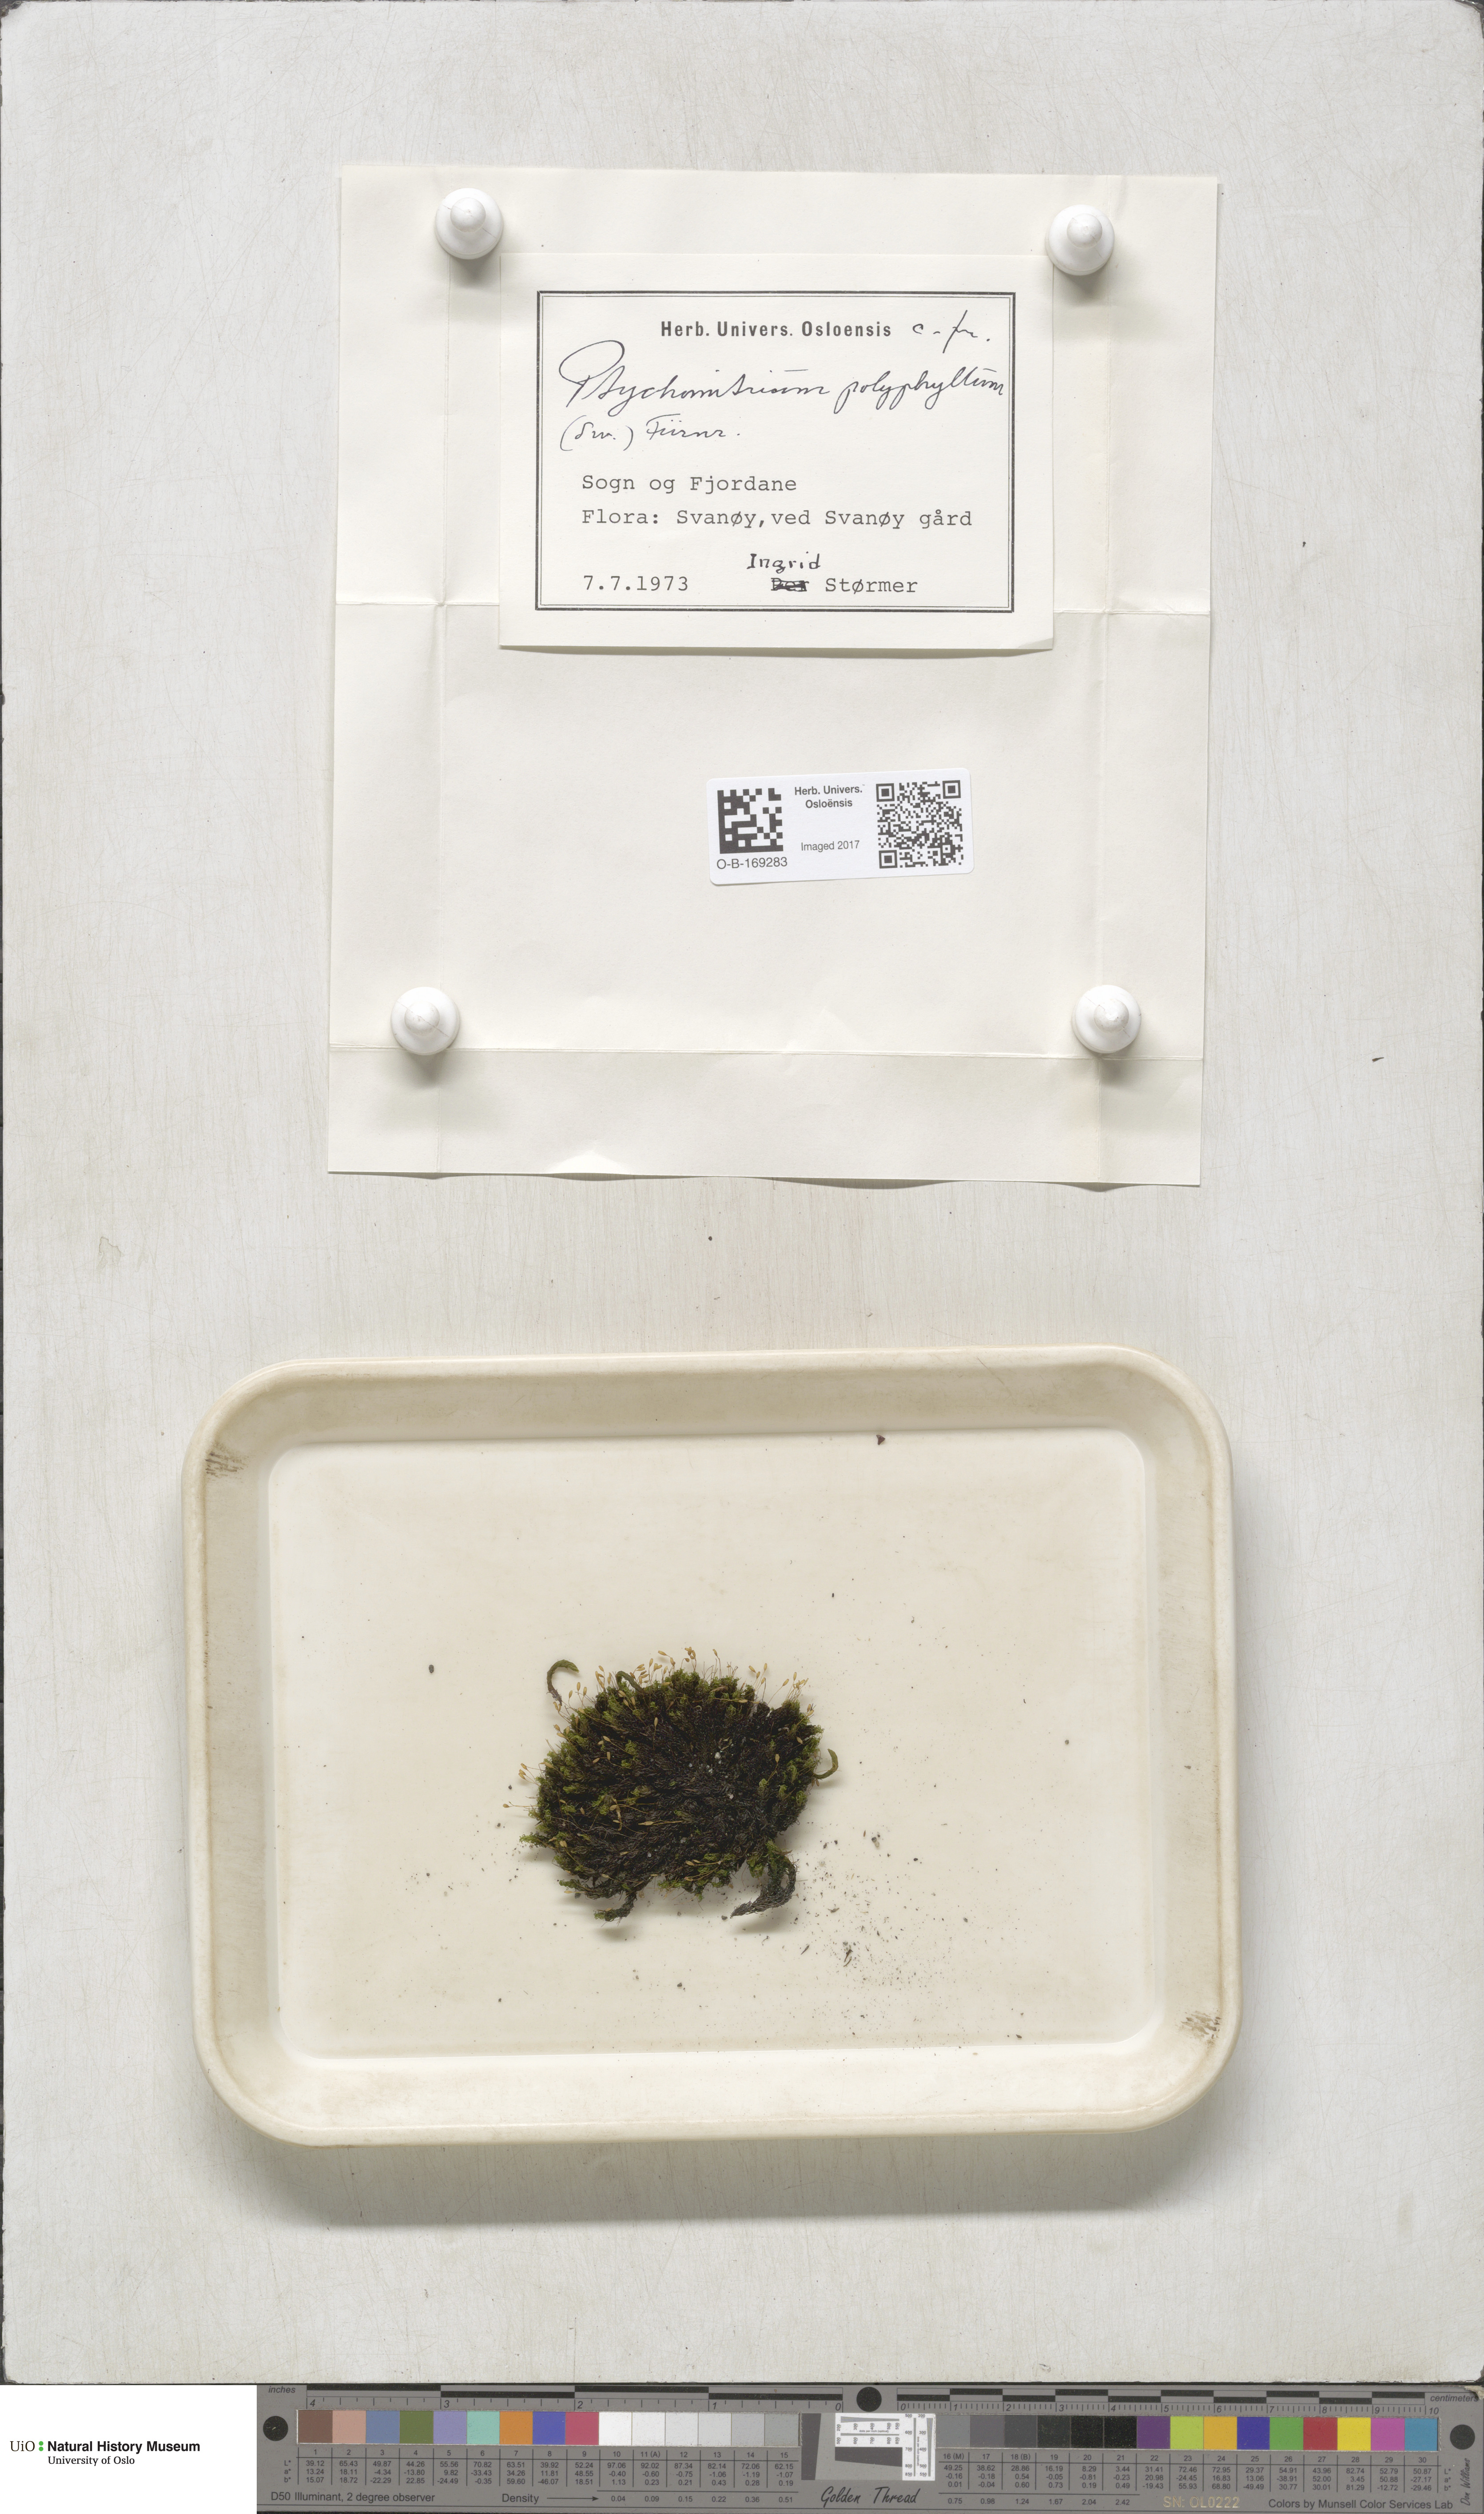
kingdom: Plantae
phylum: Bryophyta
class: Bryopsida
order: Grimmiales
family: Ptychomitriaceae
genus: Ptychomitrium
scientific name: Ptychomitrium polyphyllum
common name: Greater pincushion
